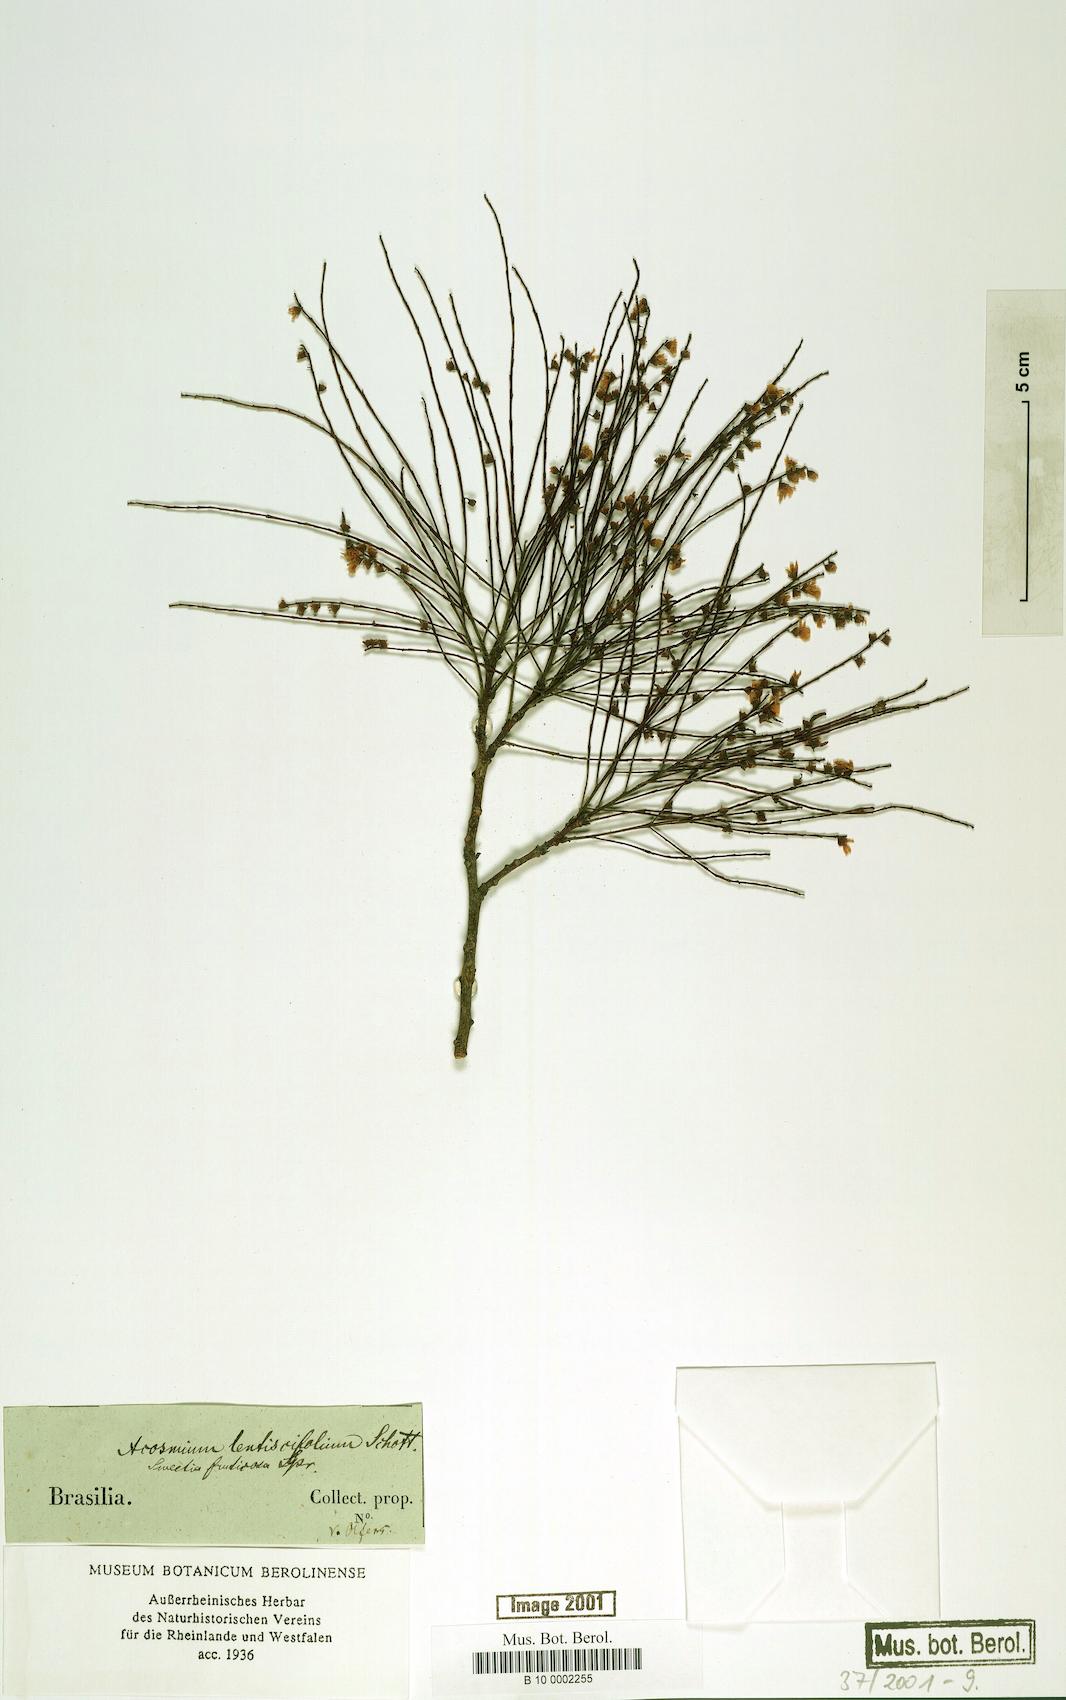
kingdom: Plantae
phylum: Tracheophyta
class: Magnoliopsida
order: Fabales
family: Fabaceae
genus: Sweetia
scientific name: Sweetia fruticosa
